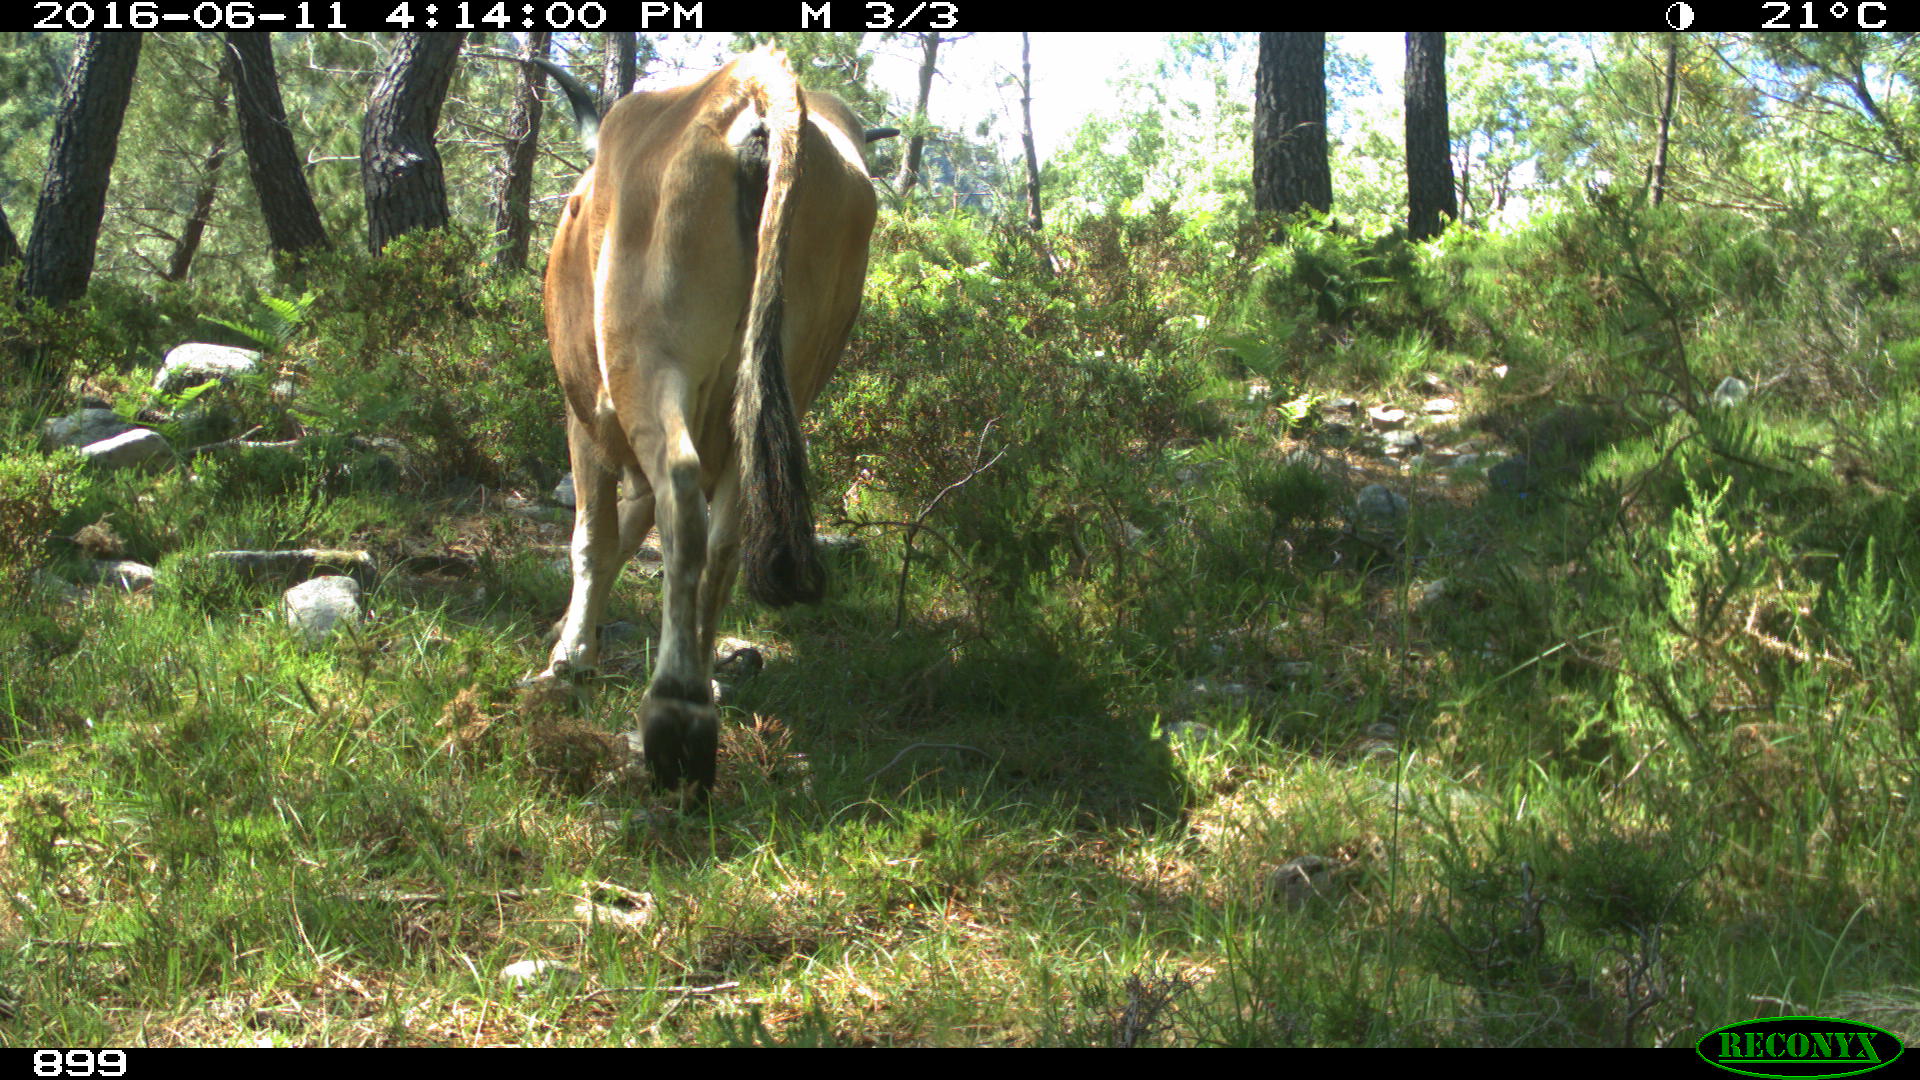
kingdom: Animalia
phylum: Chordata
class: Mammalia
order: Artiodactyla
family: Bovidae
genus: Bos
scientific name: Bos taurus
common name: Domesticated cattle
